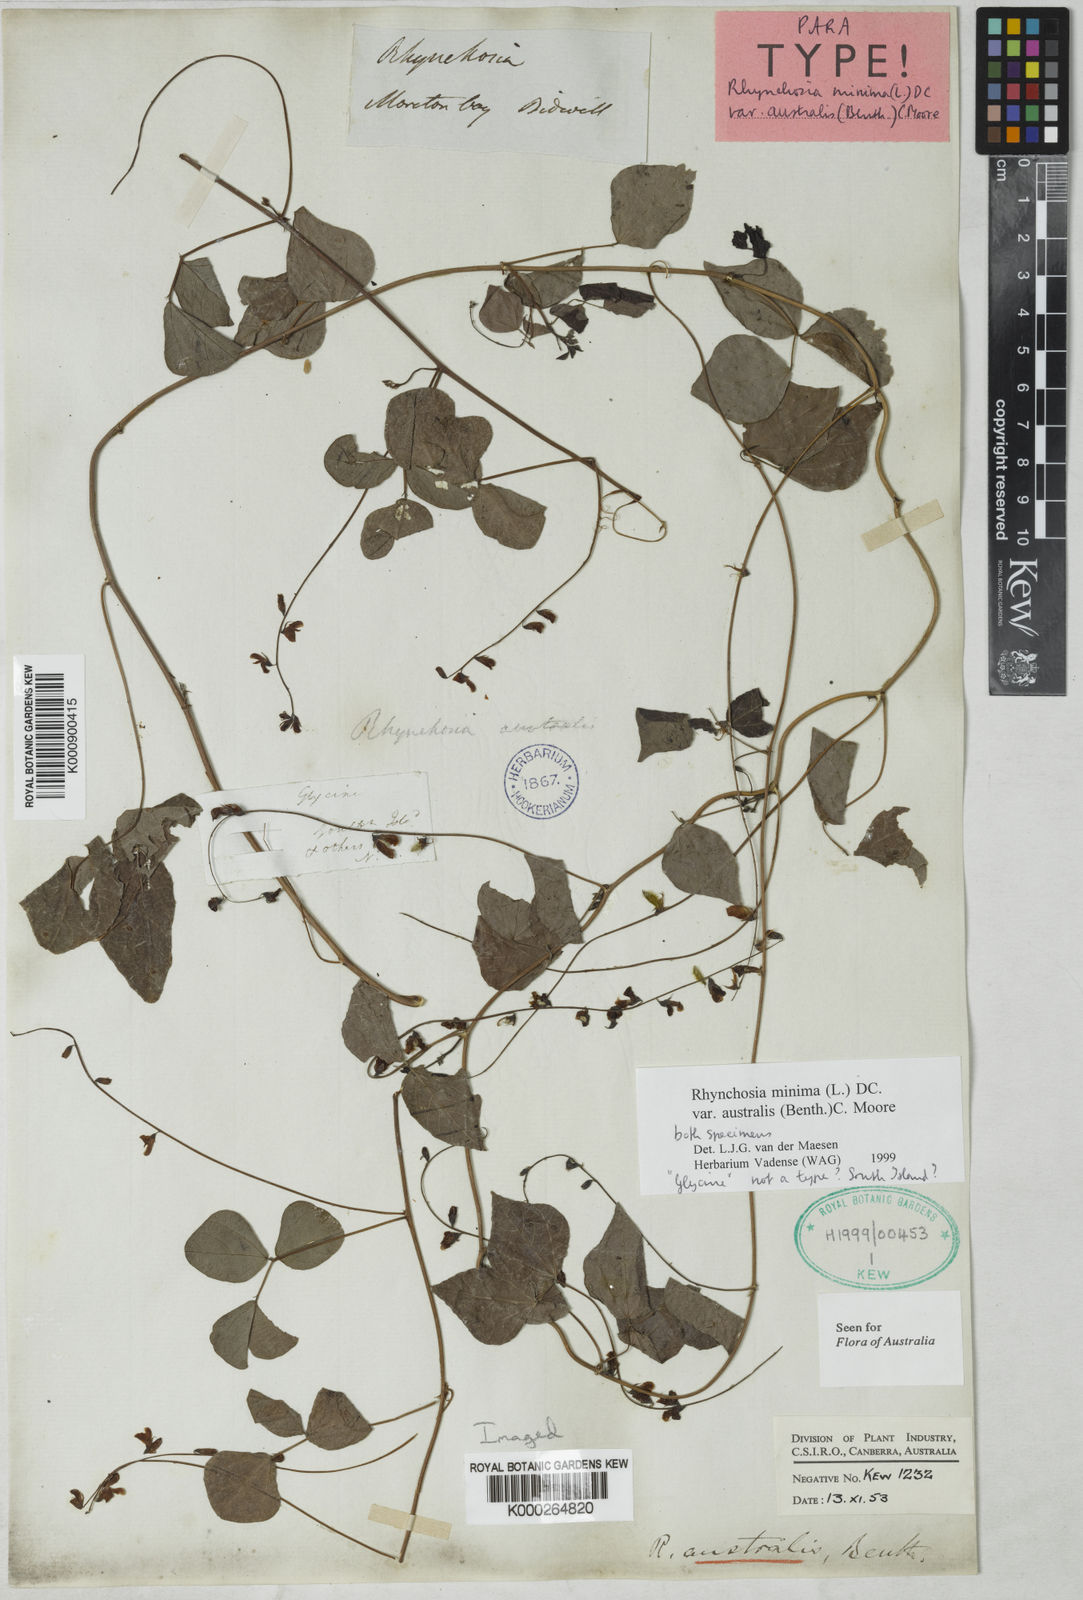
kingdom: Plantae
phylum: Tracheophyta
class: Magnoliopsida
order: Fabales
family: Fabaceae
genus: Rhynchosia
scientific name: Rhynchosia australis
